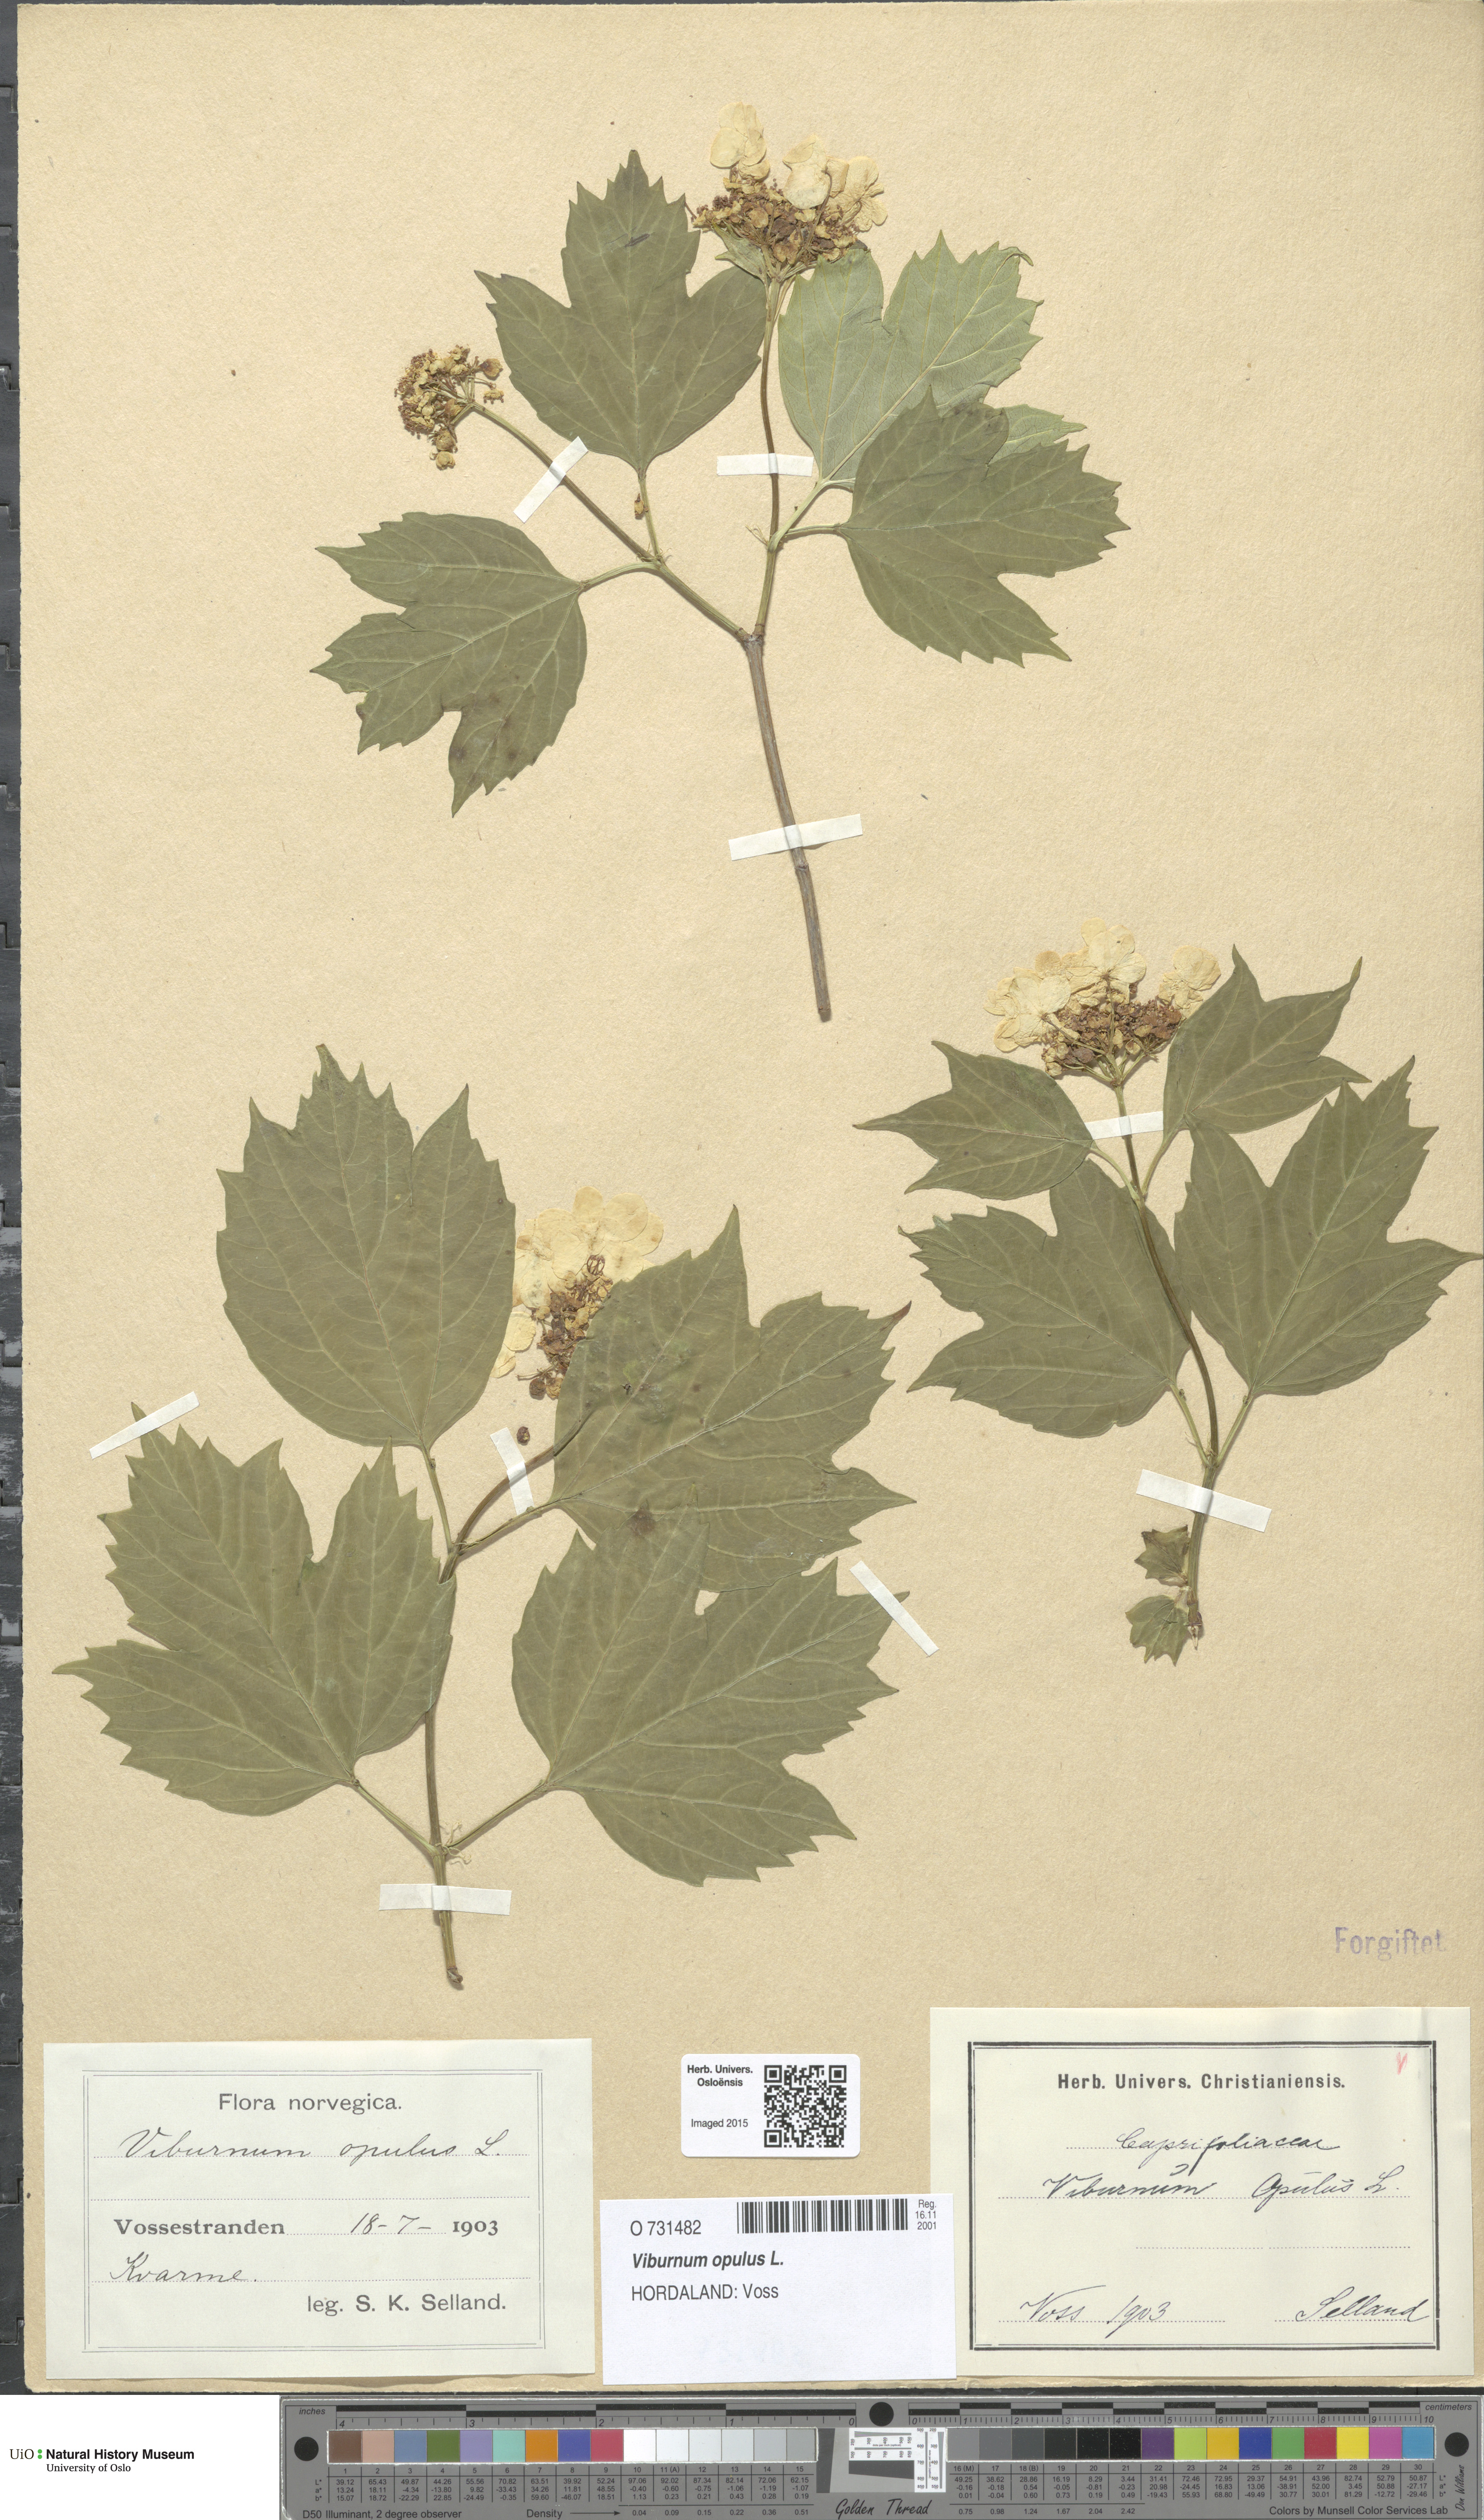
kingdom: Plantae
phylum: Tracheophyta
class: Magnoliopsida
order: Dipsacales
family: Viburnaceae
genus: Viburnum
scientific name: Viburnum opulus
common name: Guelder-rose
